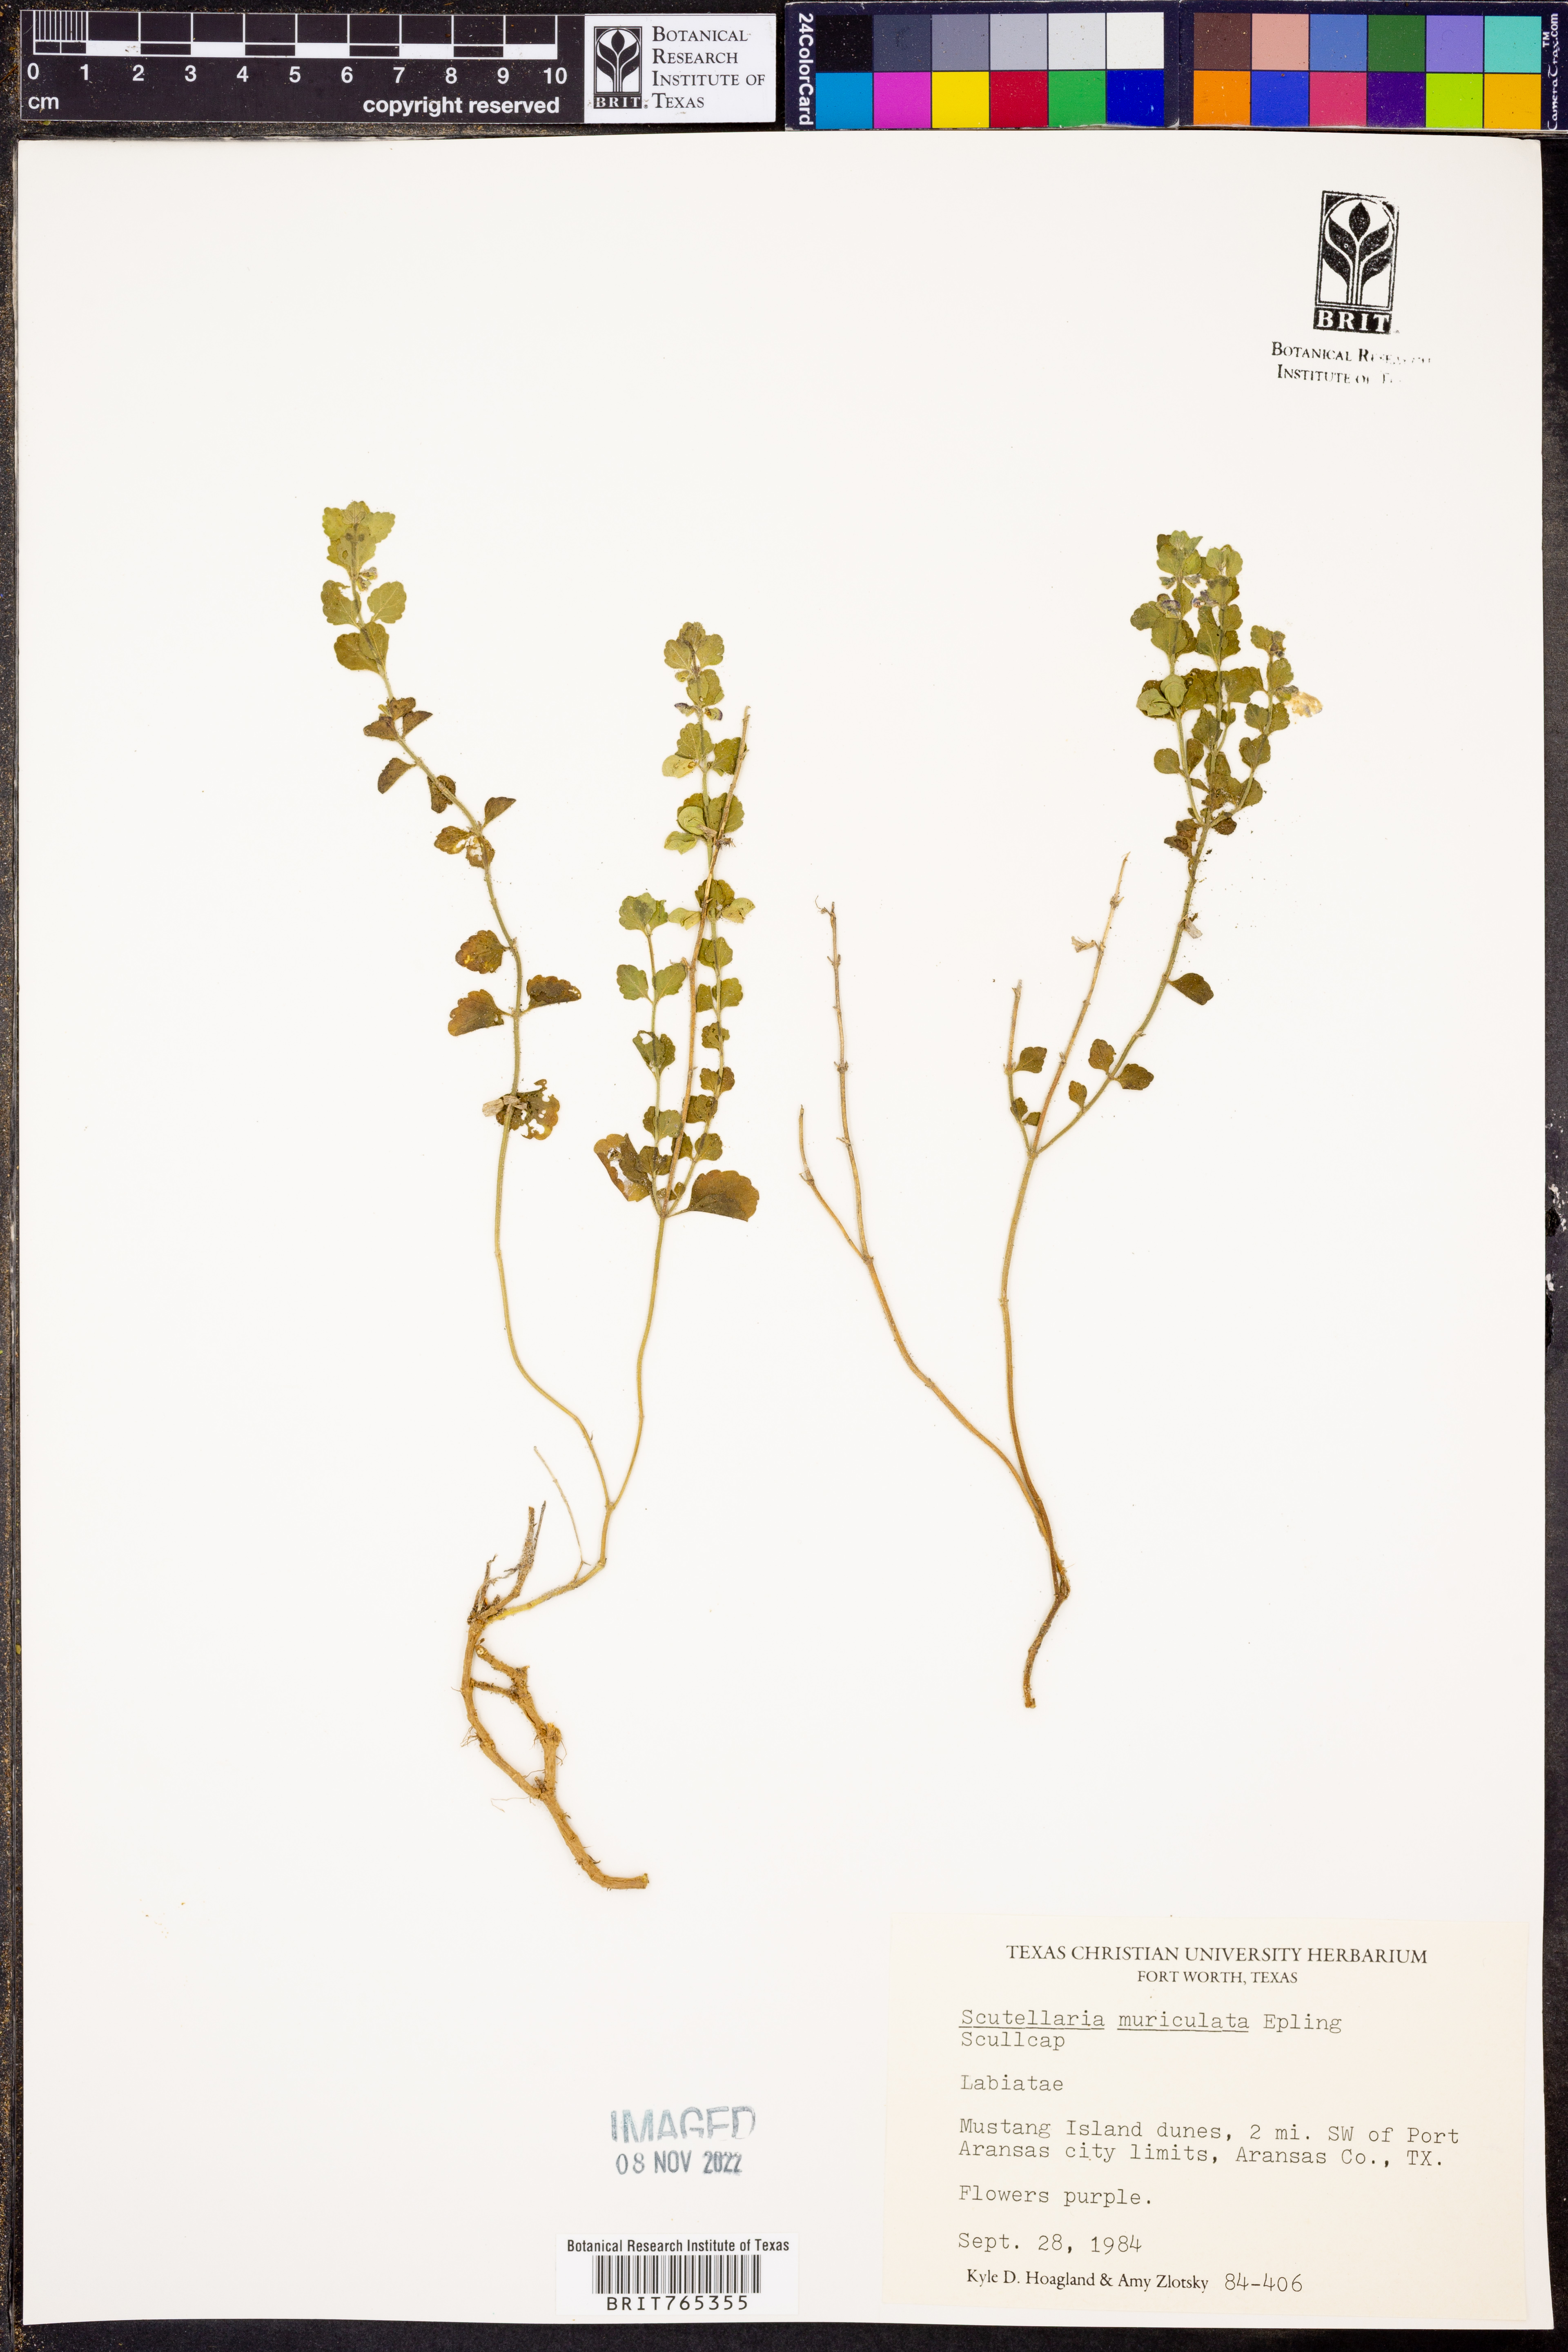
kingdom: Plantae
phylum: Tracheophyta
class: Magnoliopsida
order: Lamiales
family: Lamiaceae
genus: Scutellaria
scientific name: Scutellaria muriculata
